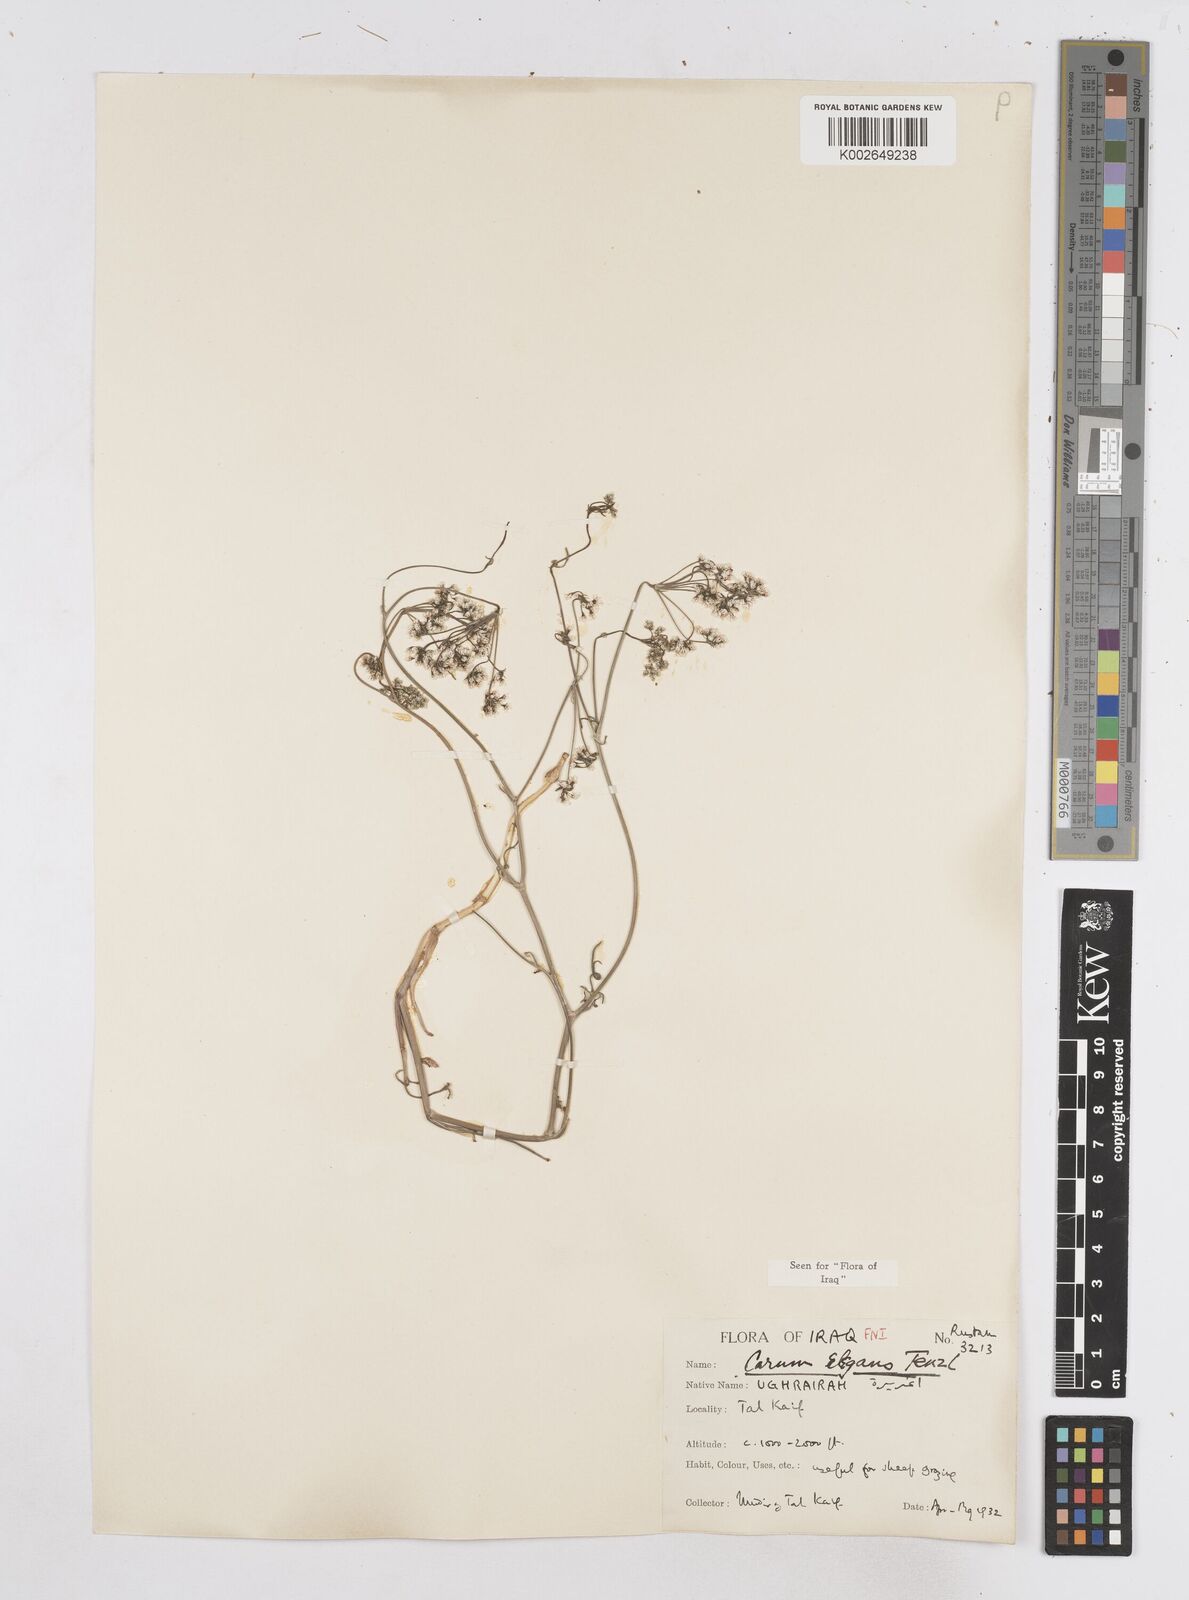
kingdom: Plantae
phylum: Tracheophyta
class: Magnoliopsida
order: Apiales
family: Apiaceae
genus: Bunium
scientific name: Bunium paucifolium
